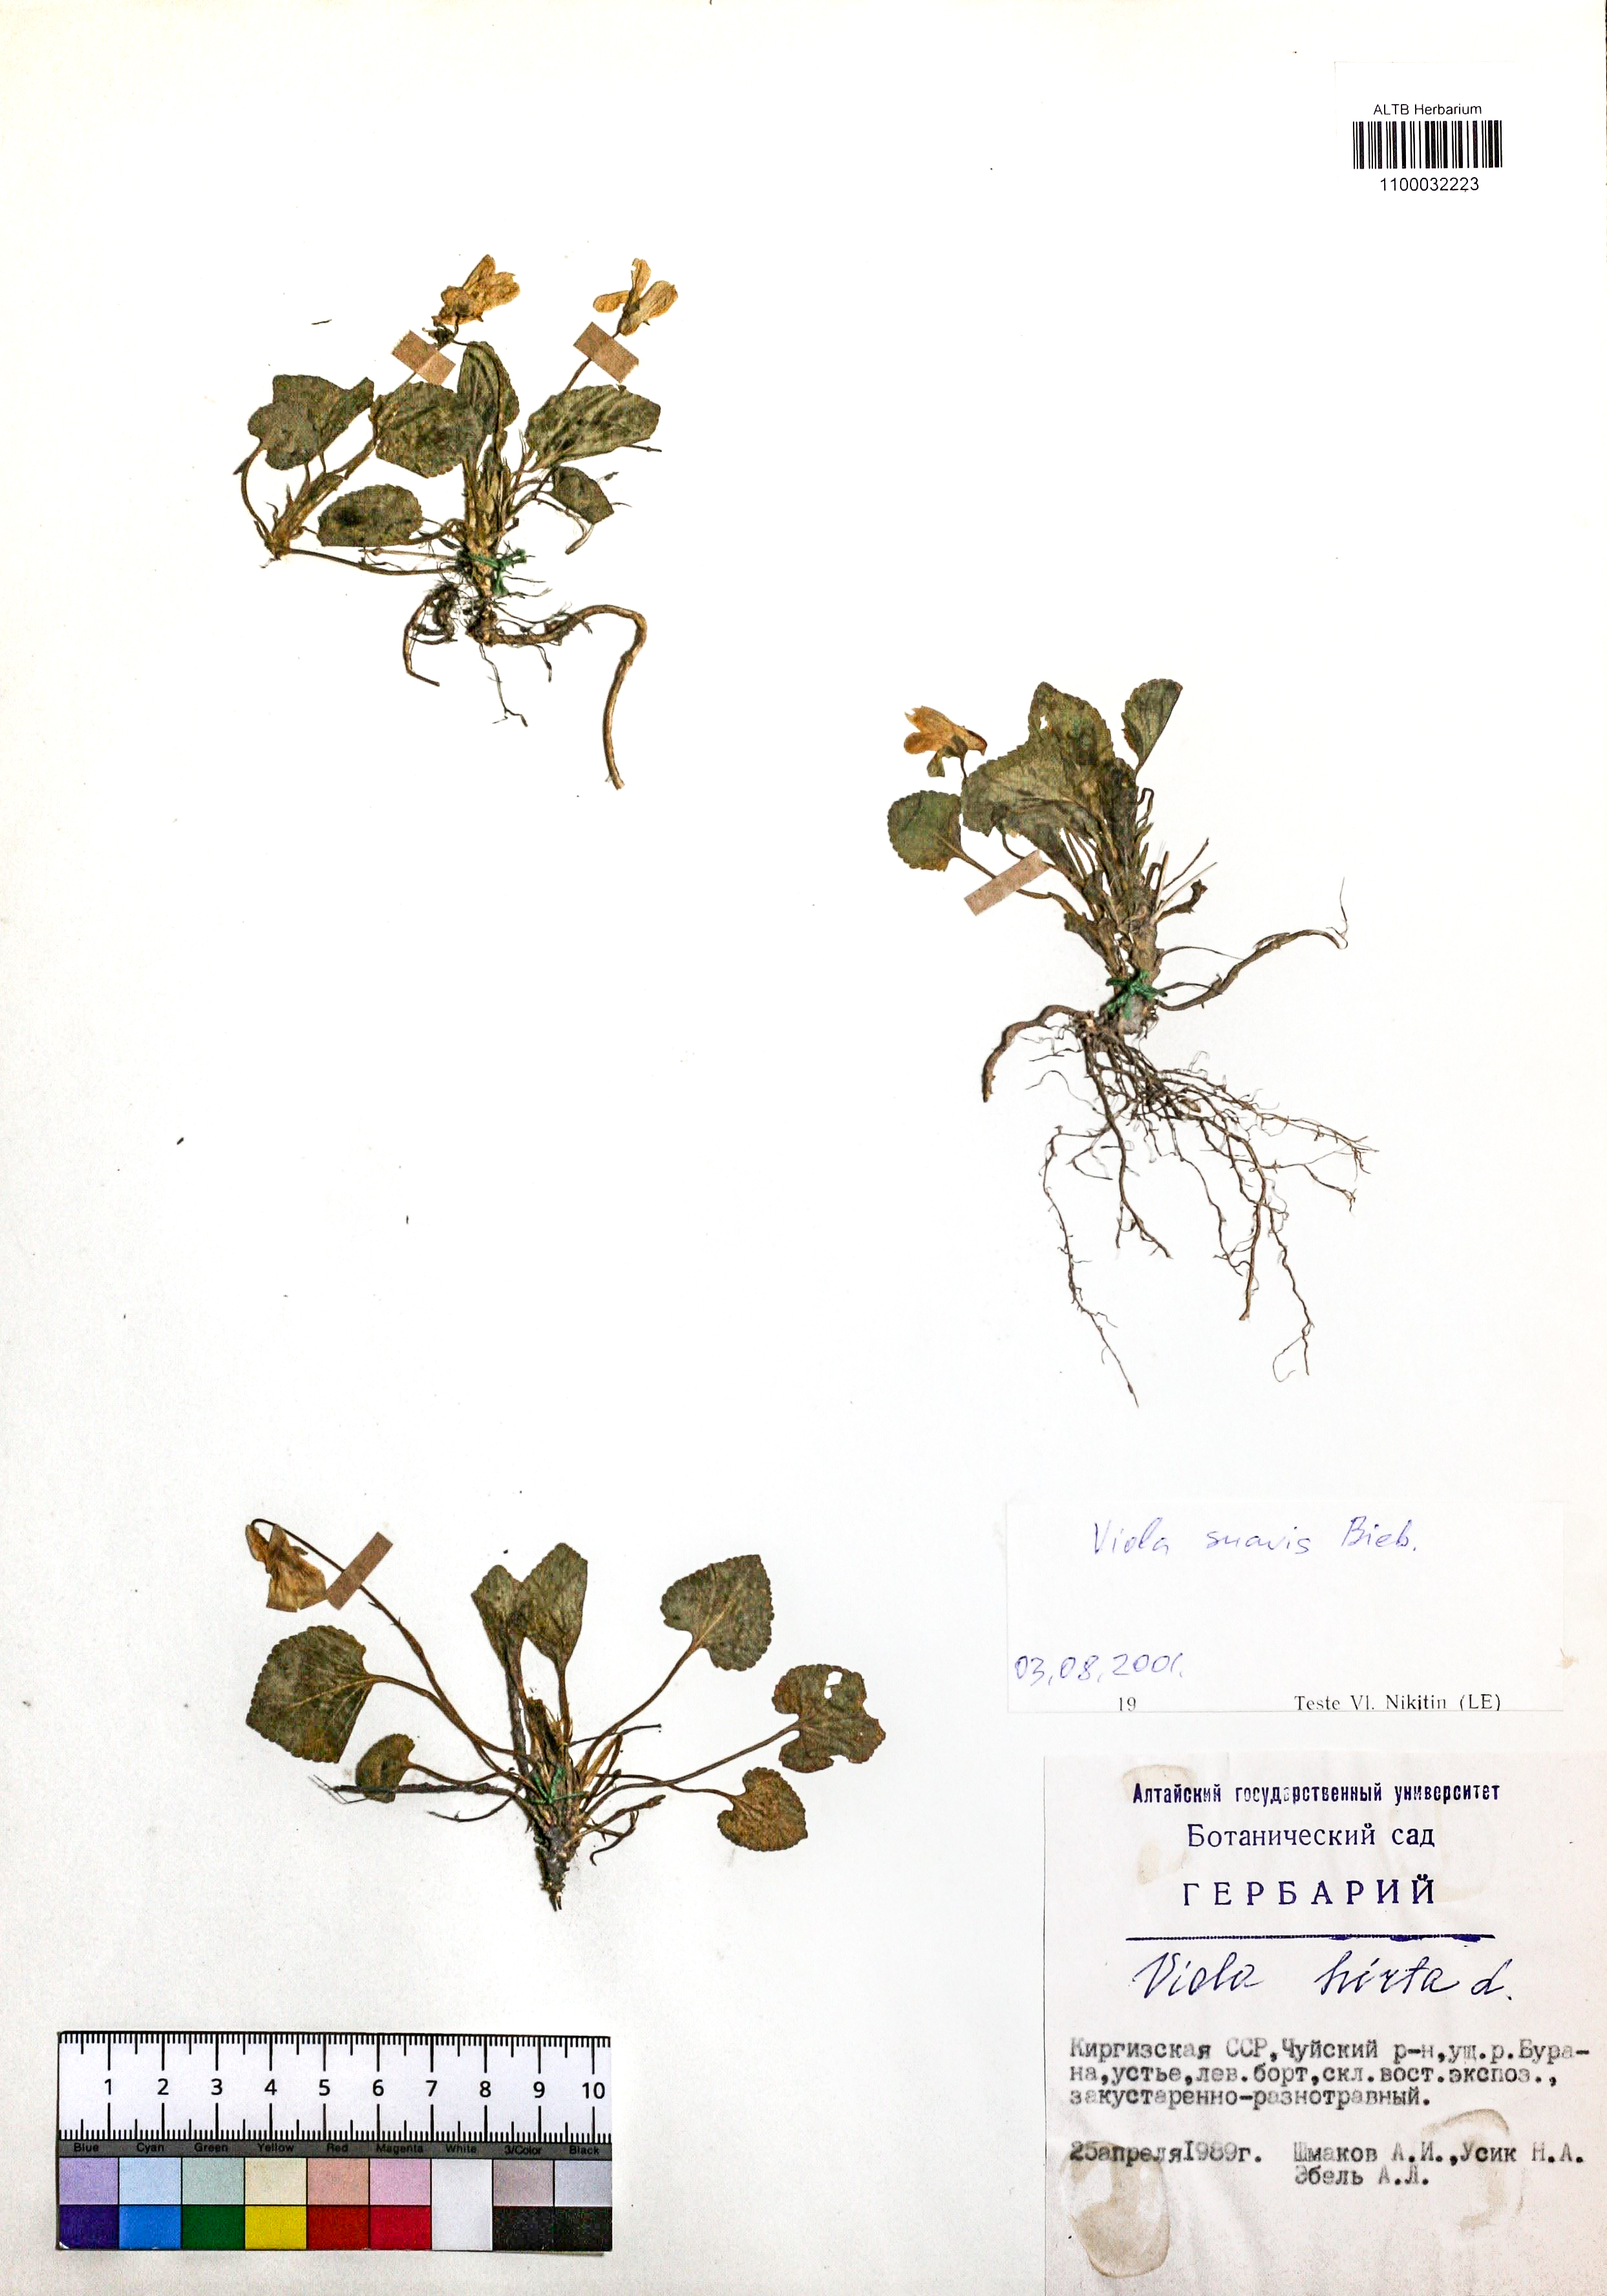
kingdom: Plantae
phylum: Tracheophyta
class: Magnoliopsida
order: Malpighiales
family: Violaceae
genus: Viola
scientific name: Viola suavis
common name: Russian violet
